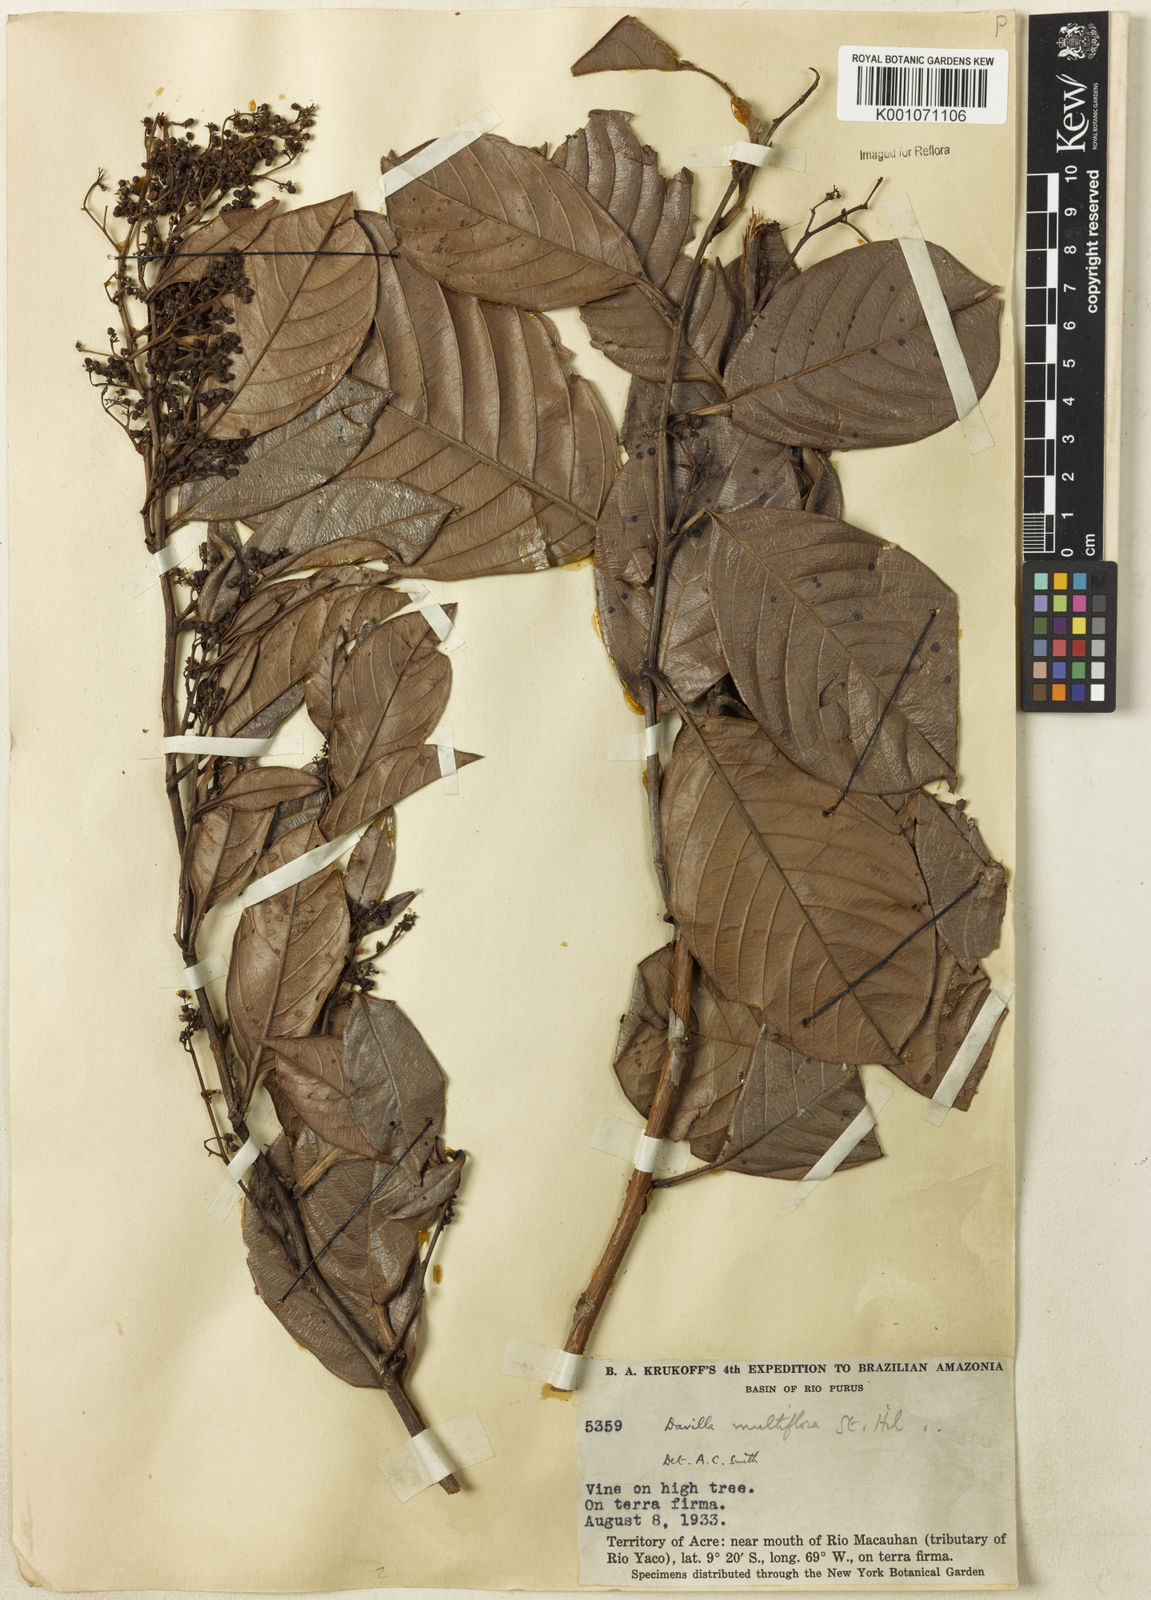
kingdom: Plantae
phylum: Tracheophyta
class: Magnoliopsida
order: Dilleniales
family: Dilleniaceae
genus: Davilla
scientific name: Davilla nitida
